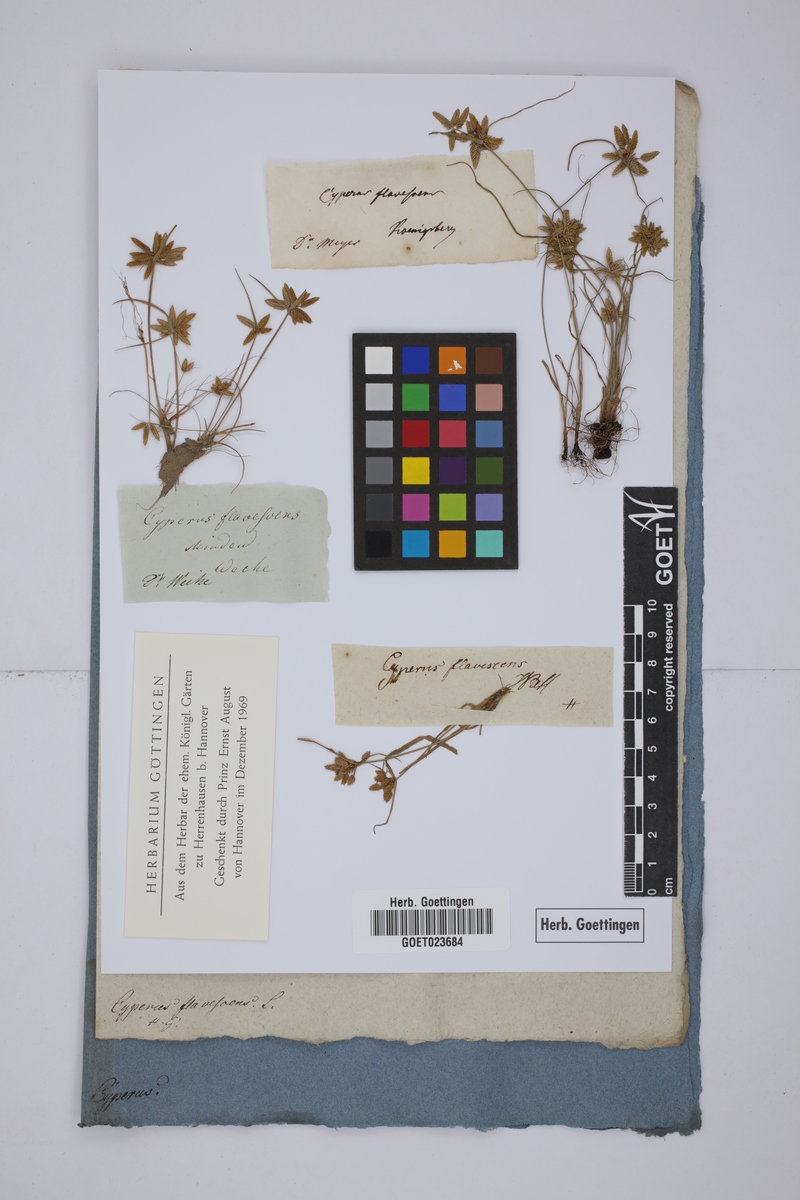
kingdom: Plantae
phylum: Tracheophyta
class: Liliopsida
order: Poales
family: Cyperaceae
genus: Cyperus
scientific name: Cyperus flavescens
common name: Yellow galingale
